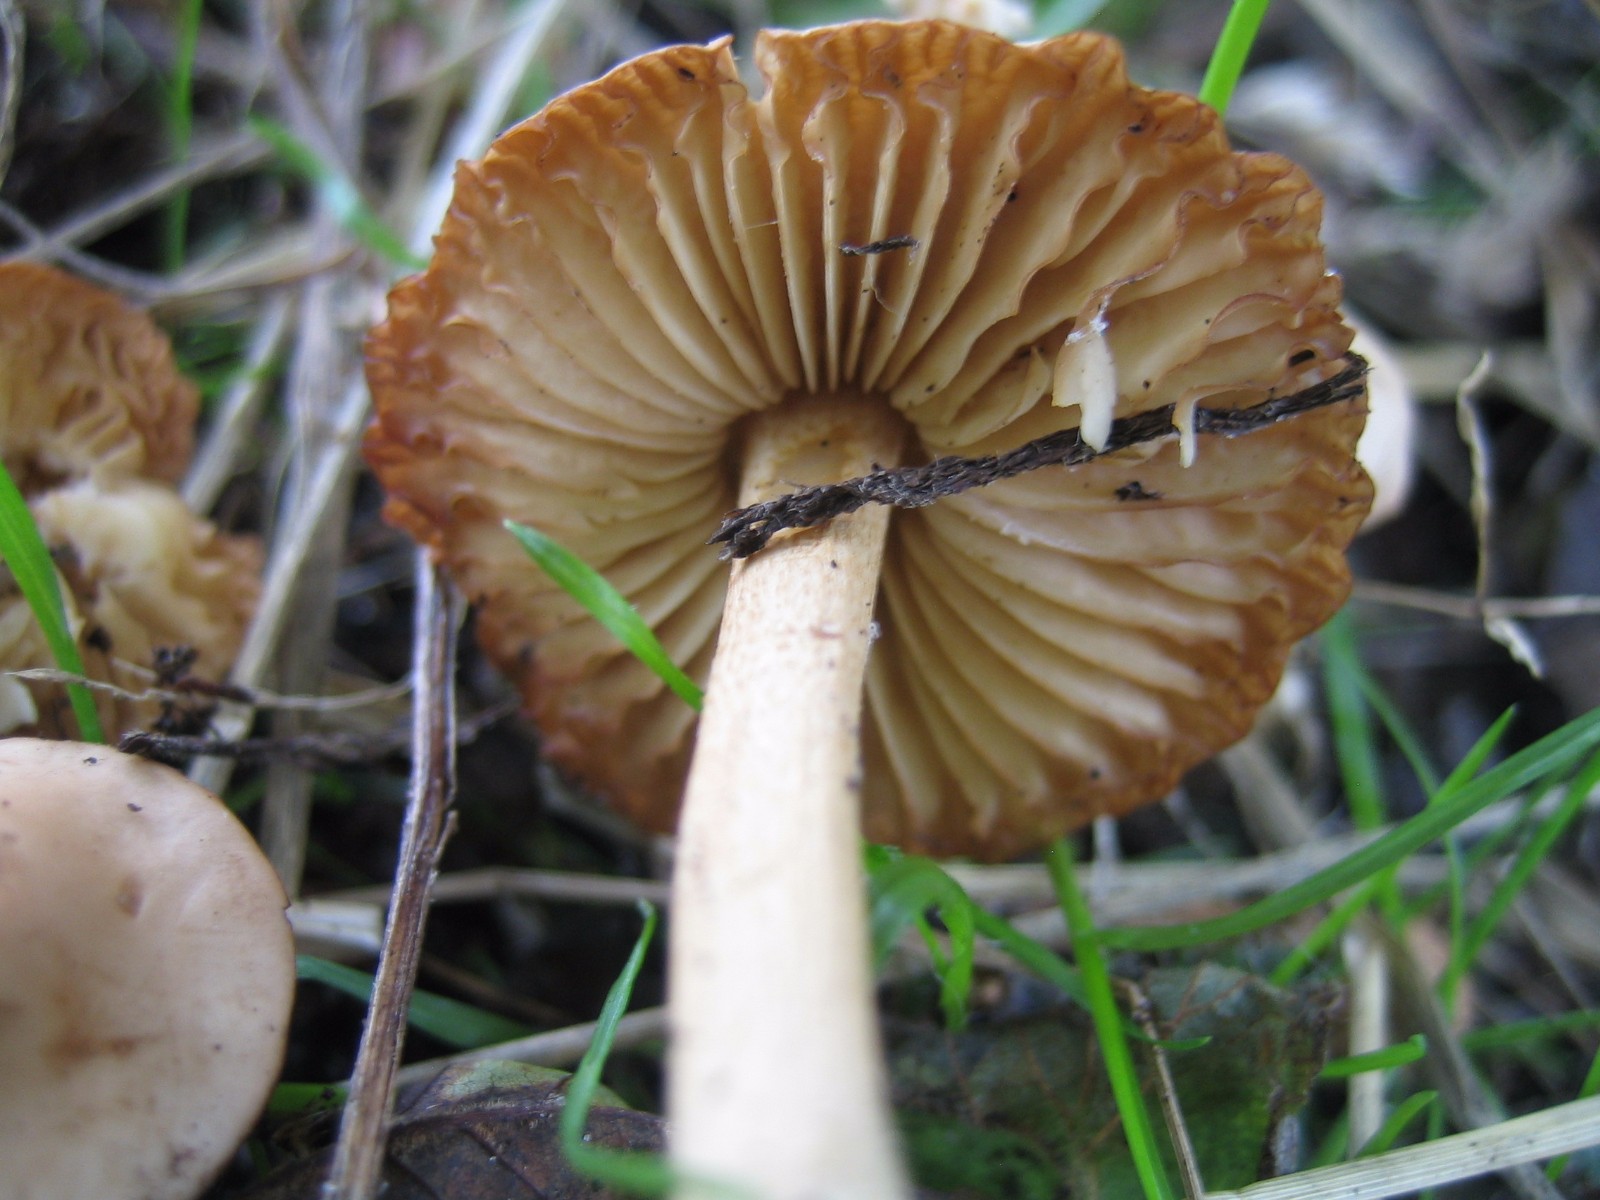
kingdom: Fungi
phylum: Basidiomycota
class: Agaricomycetes
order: Agaricales
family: Marasmiaceae
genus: Marasmius
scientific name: Marasmius oreades
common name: elledans-bruskhat
